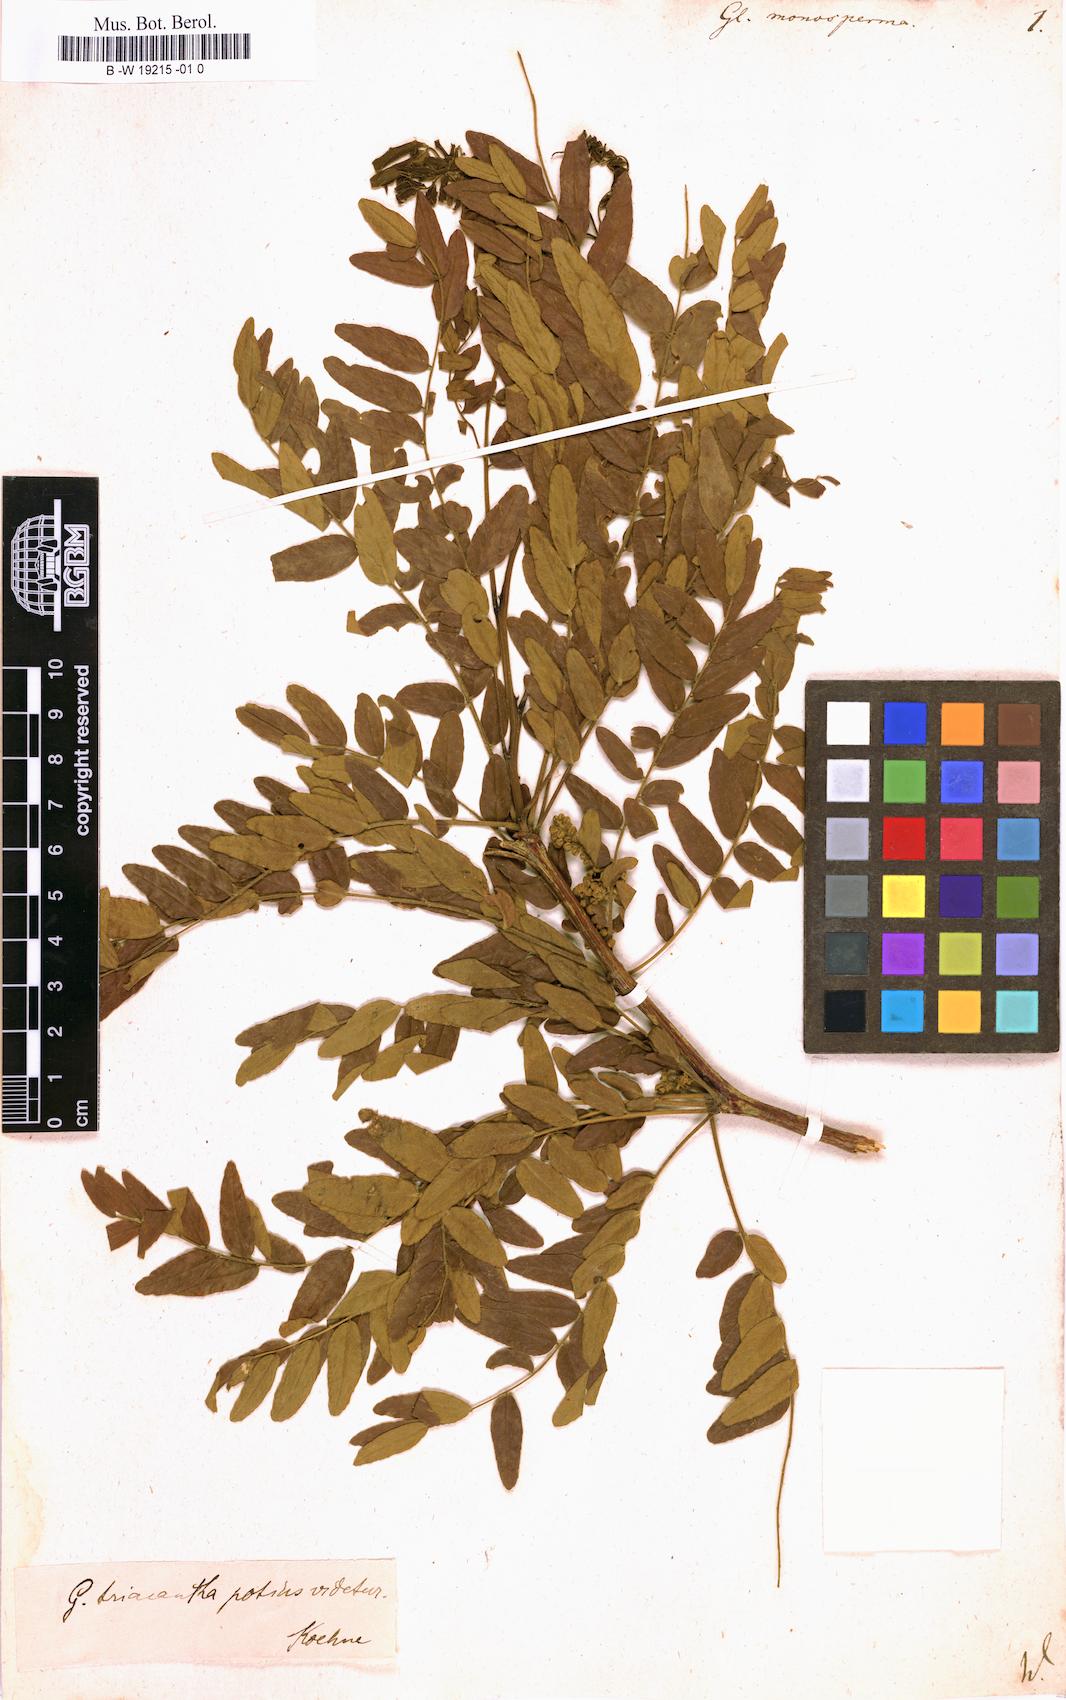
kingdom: Plantae
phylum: Tracheophyta
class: Magnoliopsida
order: Fabales
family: Fabaceae
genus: Gleditsia
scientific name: Gleditsia aquatica
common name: Swamp-locust
